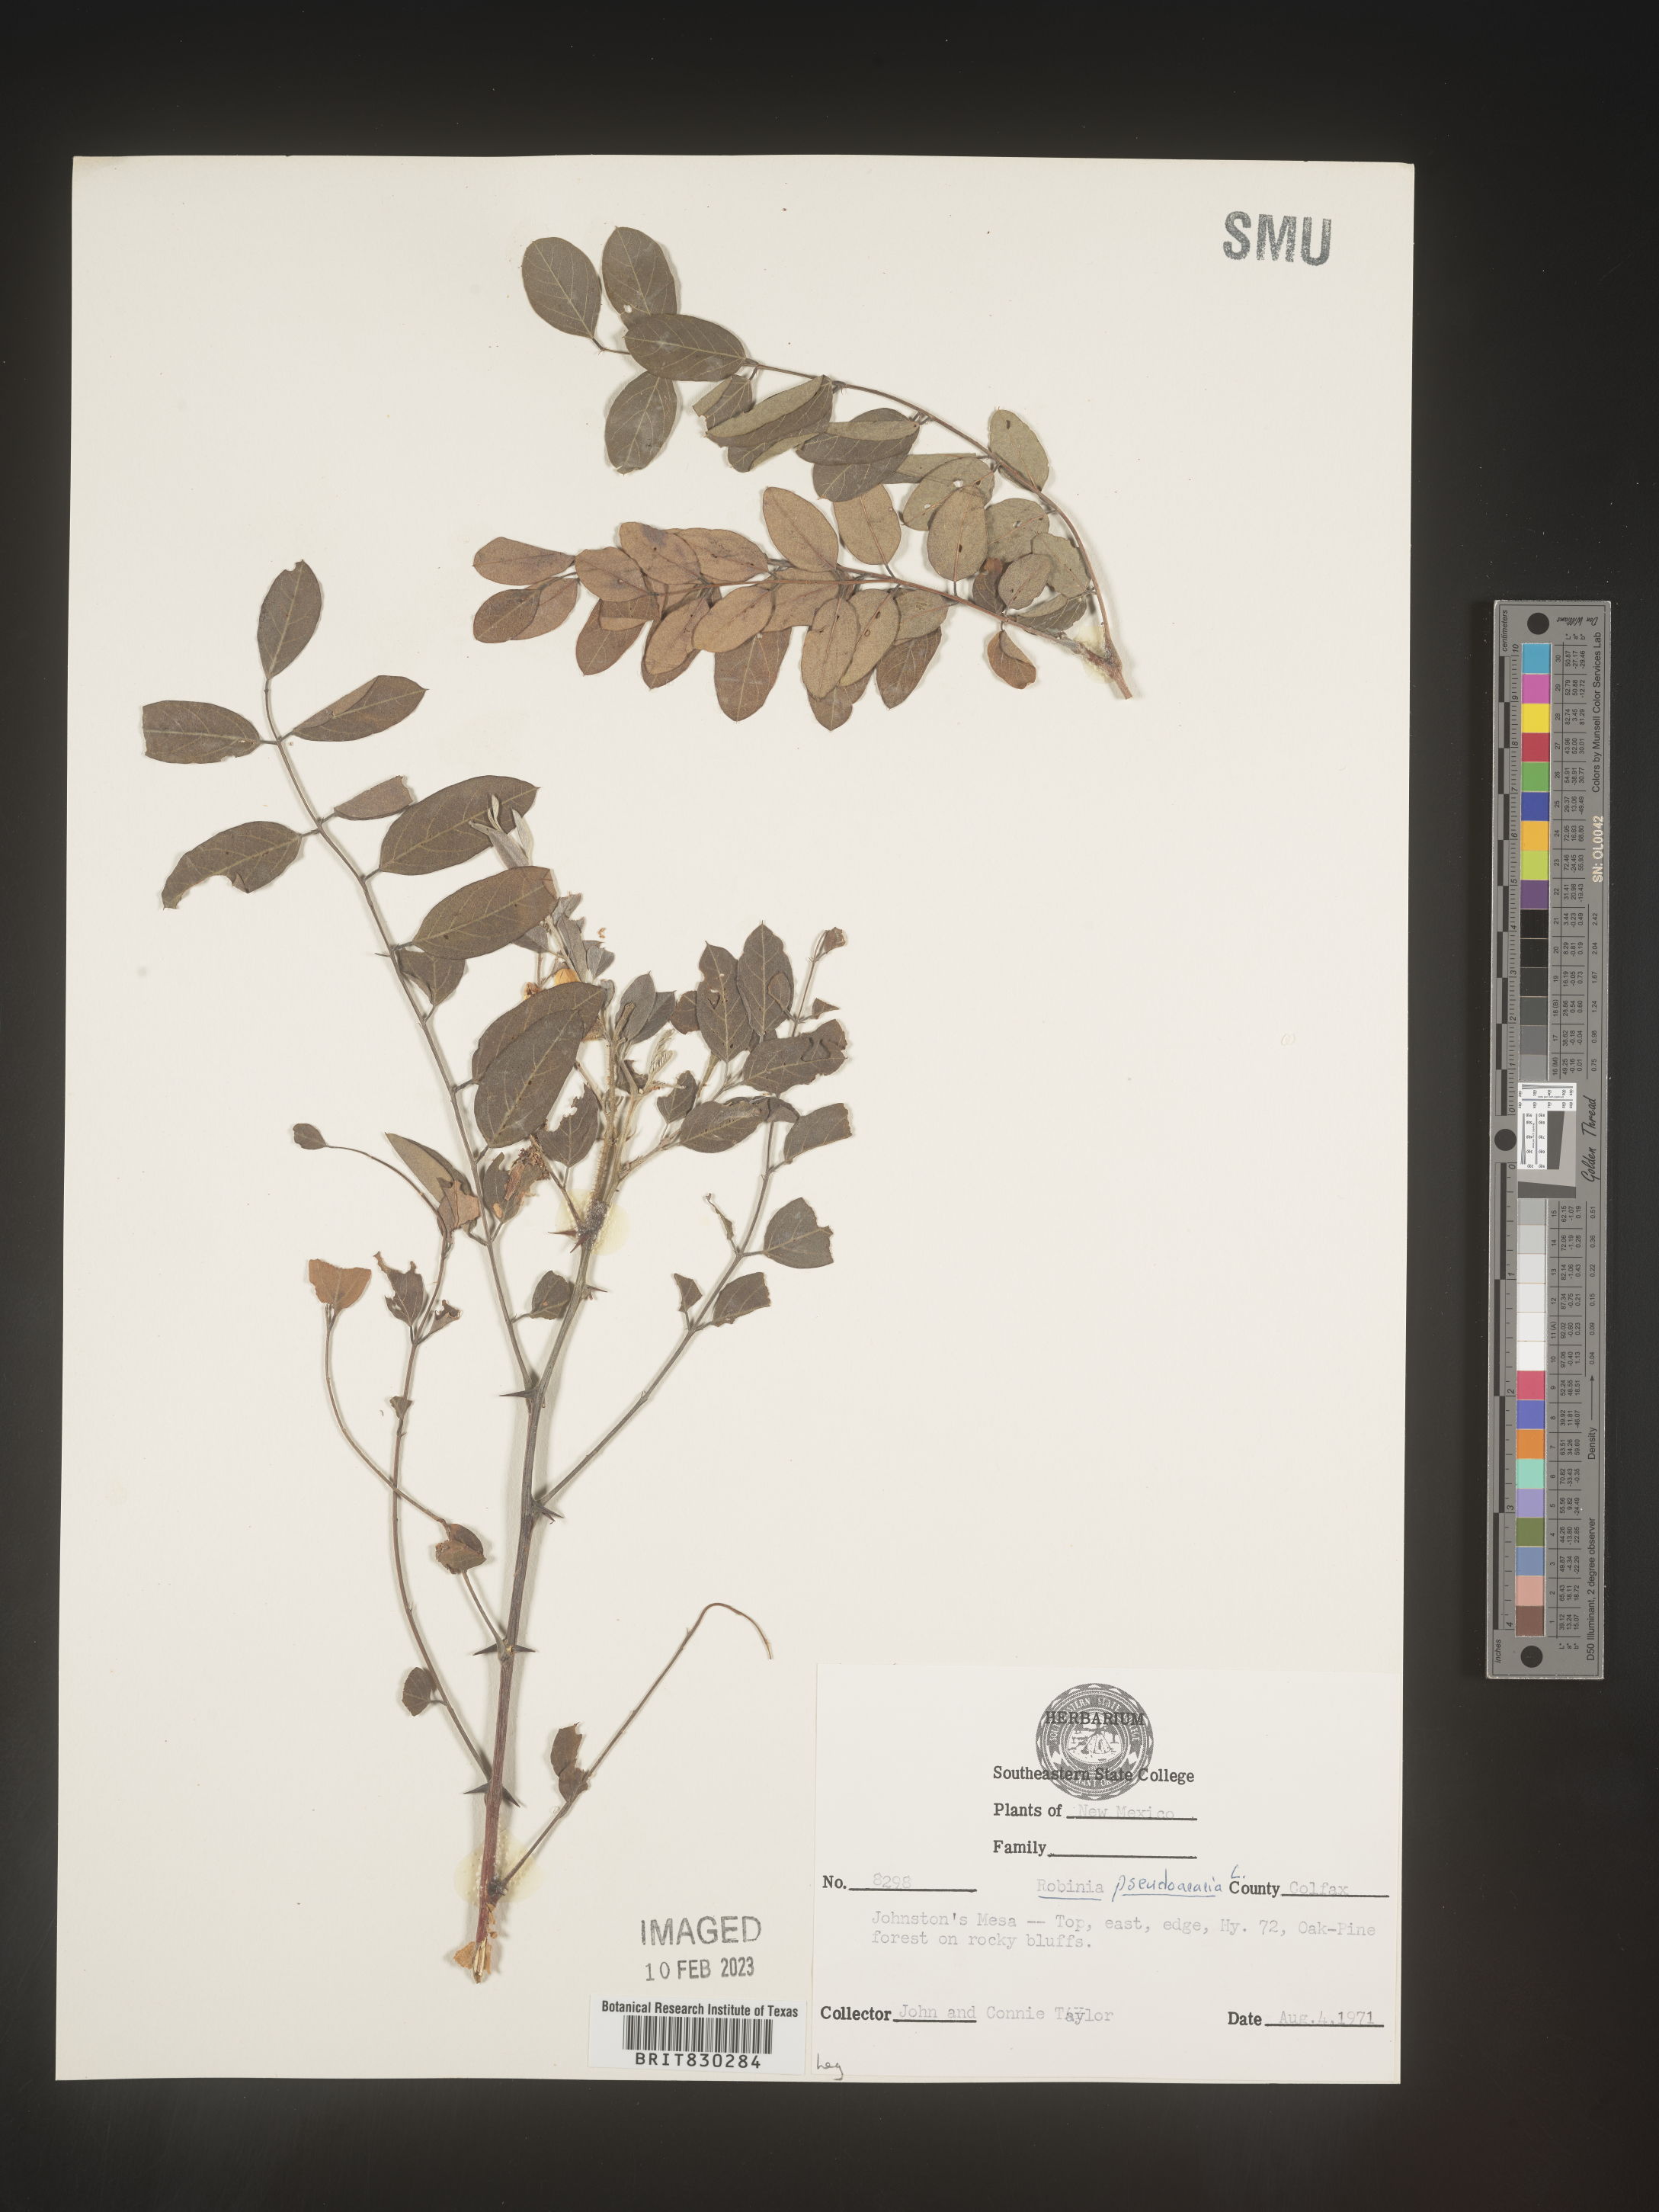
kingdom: Plantae
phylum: Tracheophyta
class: Magnoliopsida
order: Fabales
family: Fabaceae
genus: Robinia
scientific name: Robinia pseudoacacia
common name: Black locust
